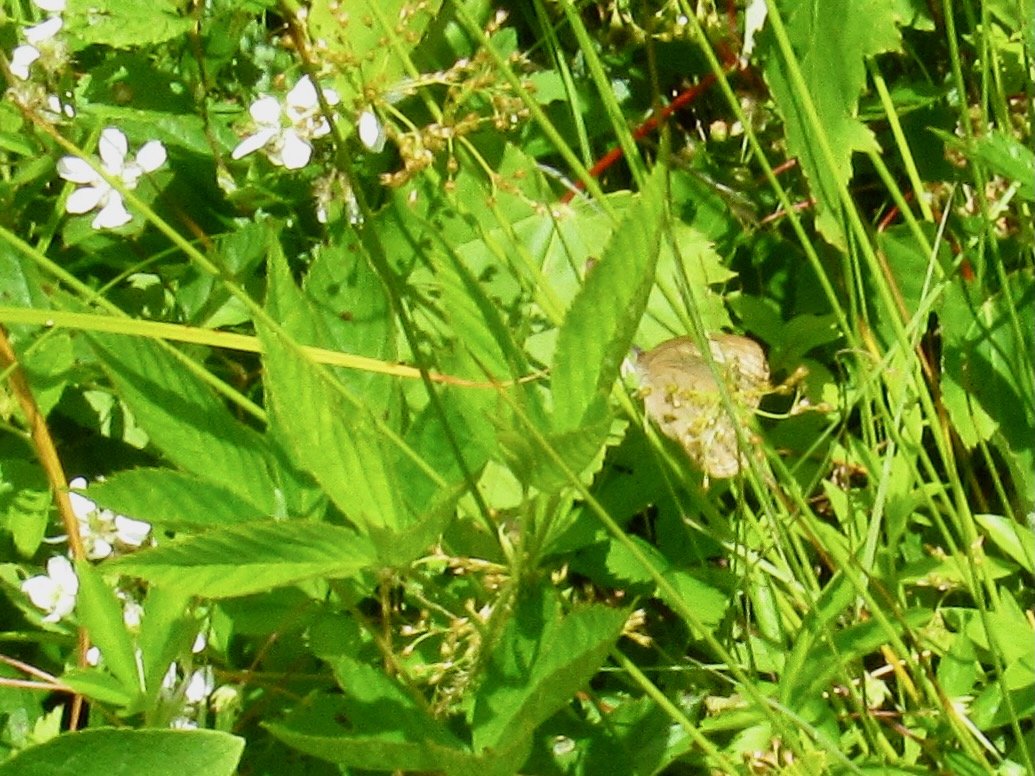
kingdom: Animalia
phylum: Arthropoda
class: Insecta
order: Lepidoptera
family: Nymphalidae
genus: Lethe
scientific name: Lethe eurydice
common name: Eyed Brown
